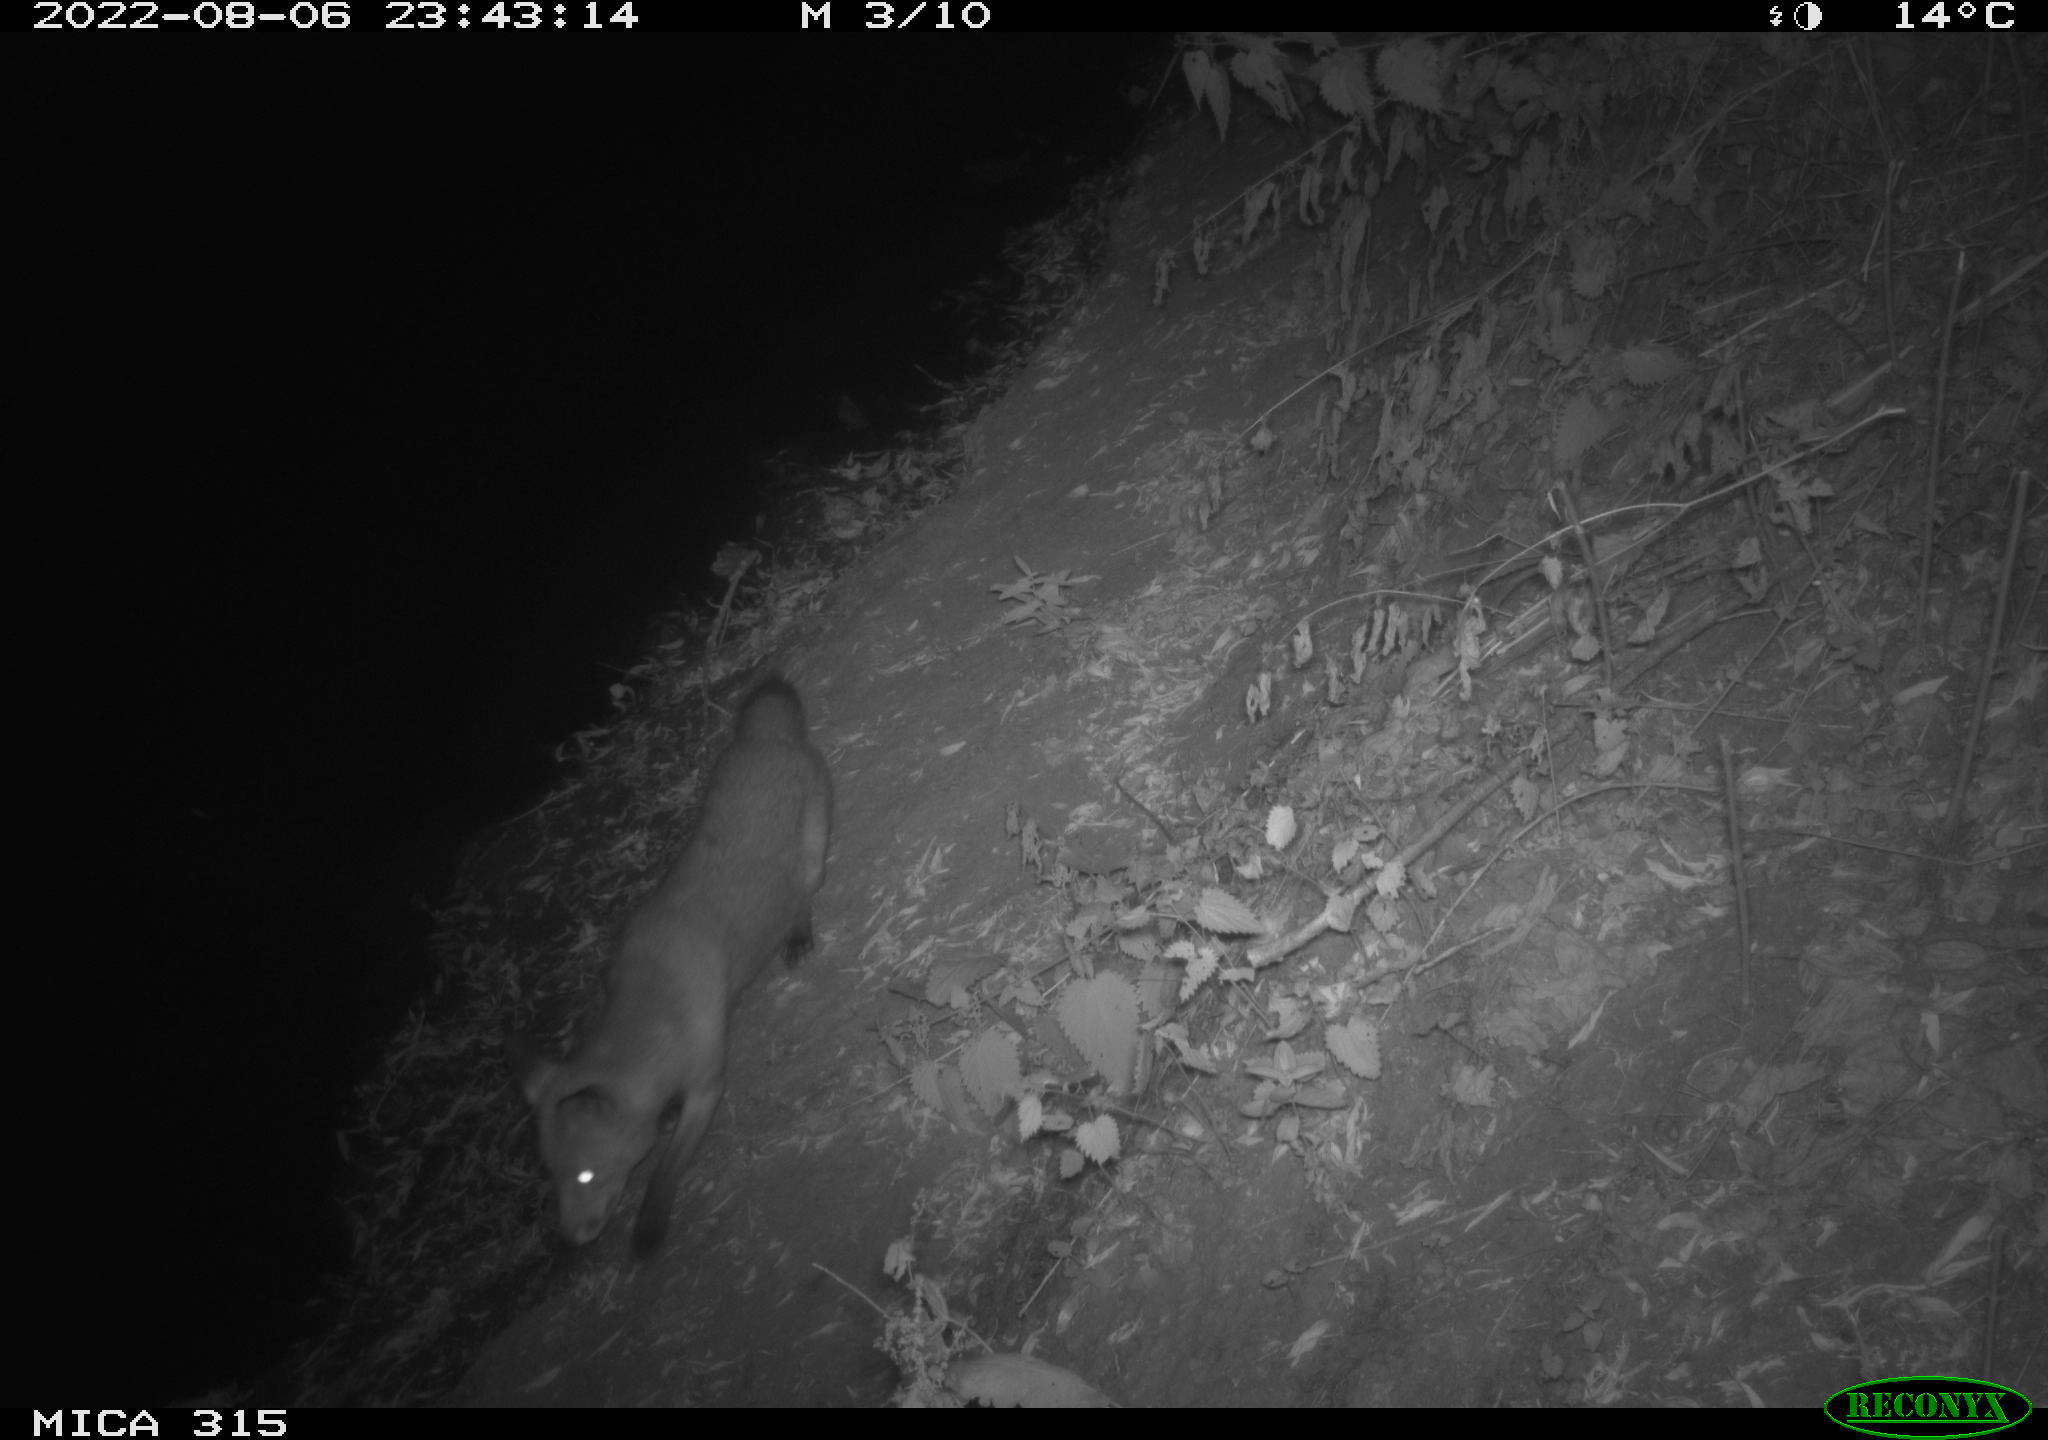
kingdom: Animalia
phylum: Chordata
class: Mammalia
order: Carnivora
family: Canidae
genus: Vulpes
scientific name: Vulpes vulpes
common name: Red fox
